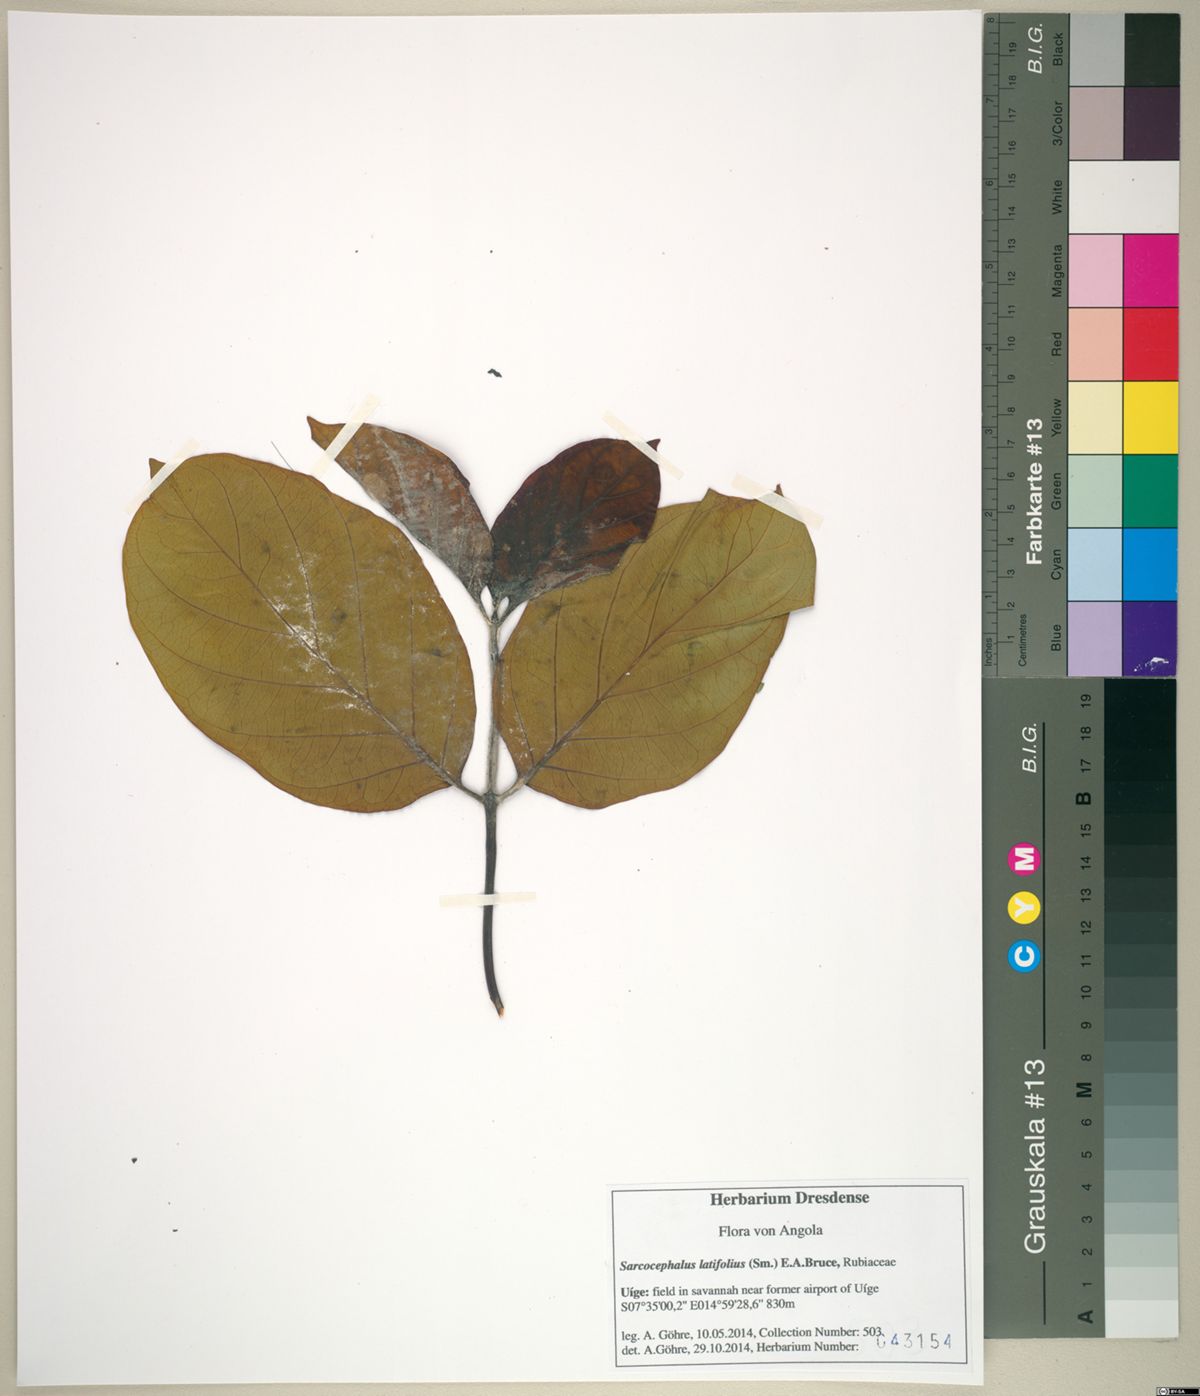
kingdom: Plantae
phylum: Tracheophyta
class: Magnoliopsida
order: Gentianales
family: Rubiaceae
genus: Nauclea
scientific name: Nauclea latifolia
